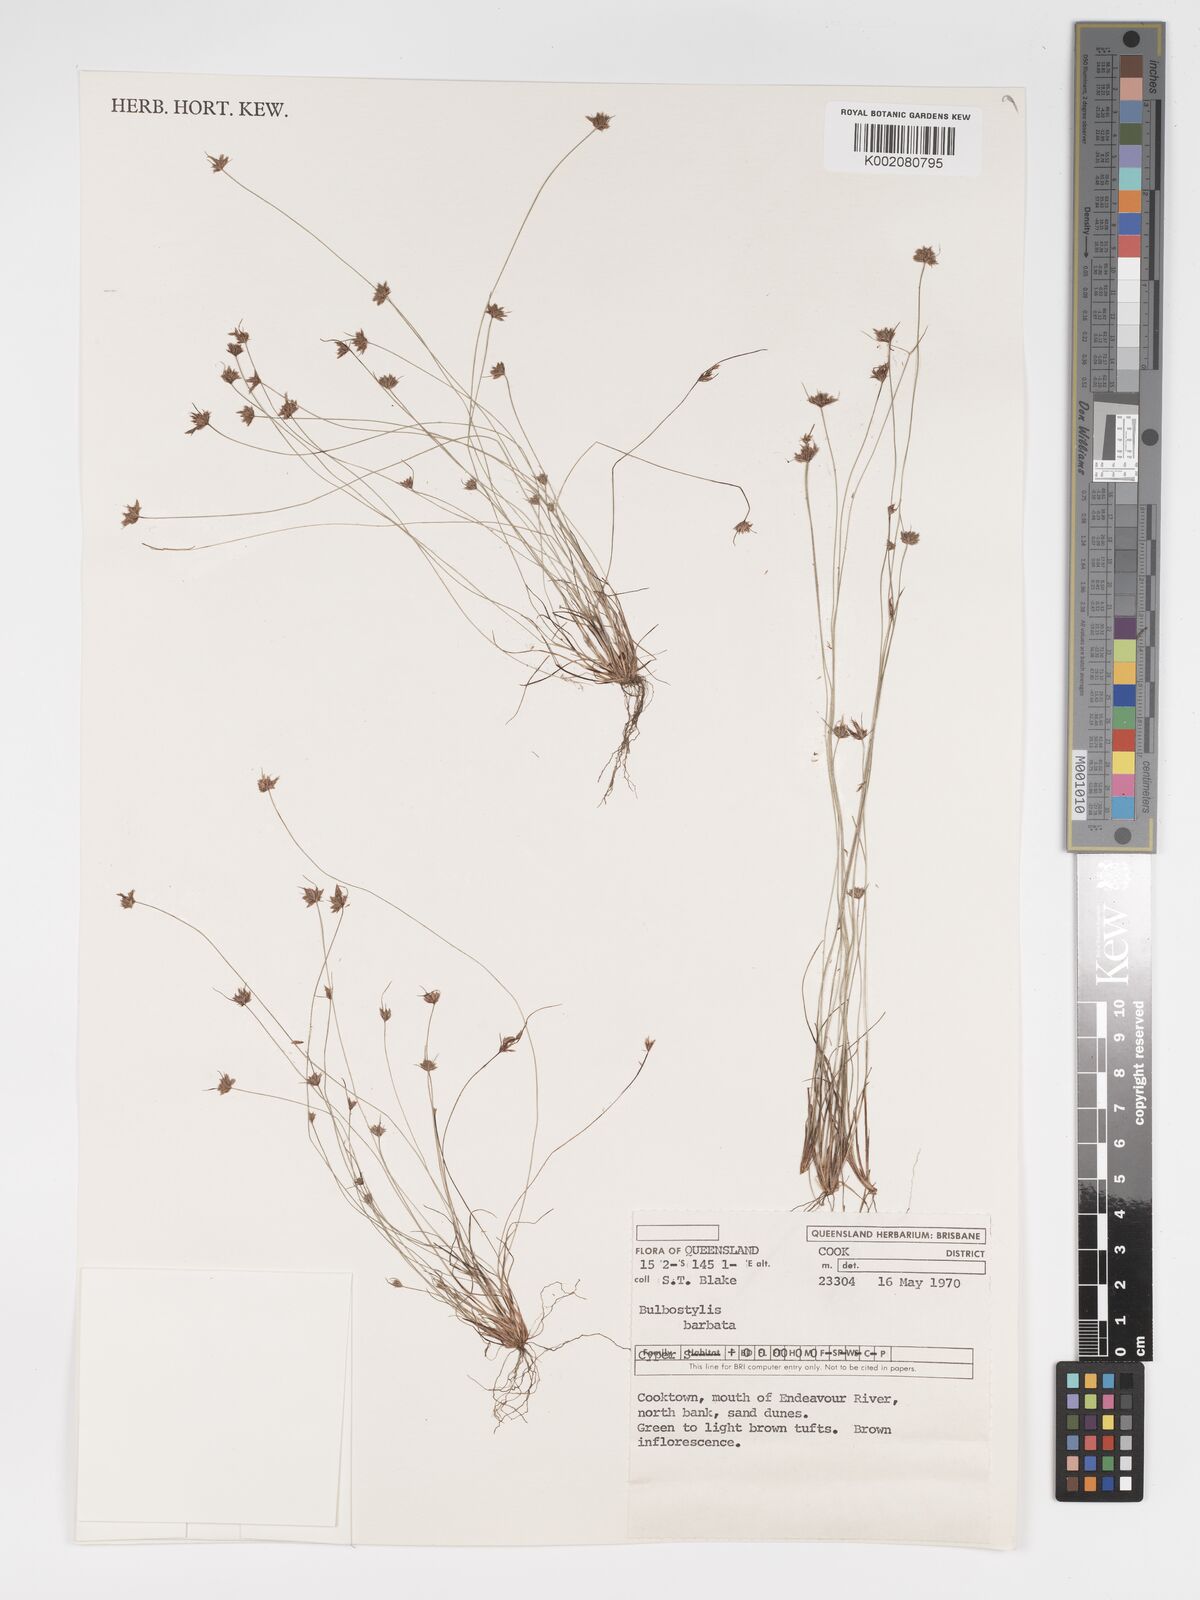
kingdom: Plantae
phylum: Tracheophyta
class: Liliopsida
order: Poales
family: Cyperaceae
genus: Bulbostylis
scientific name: Bulbostylis barbata
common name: Watergrass
